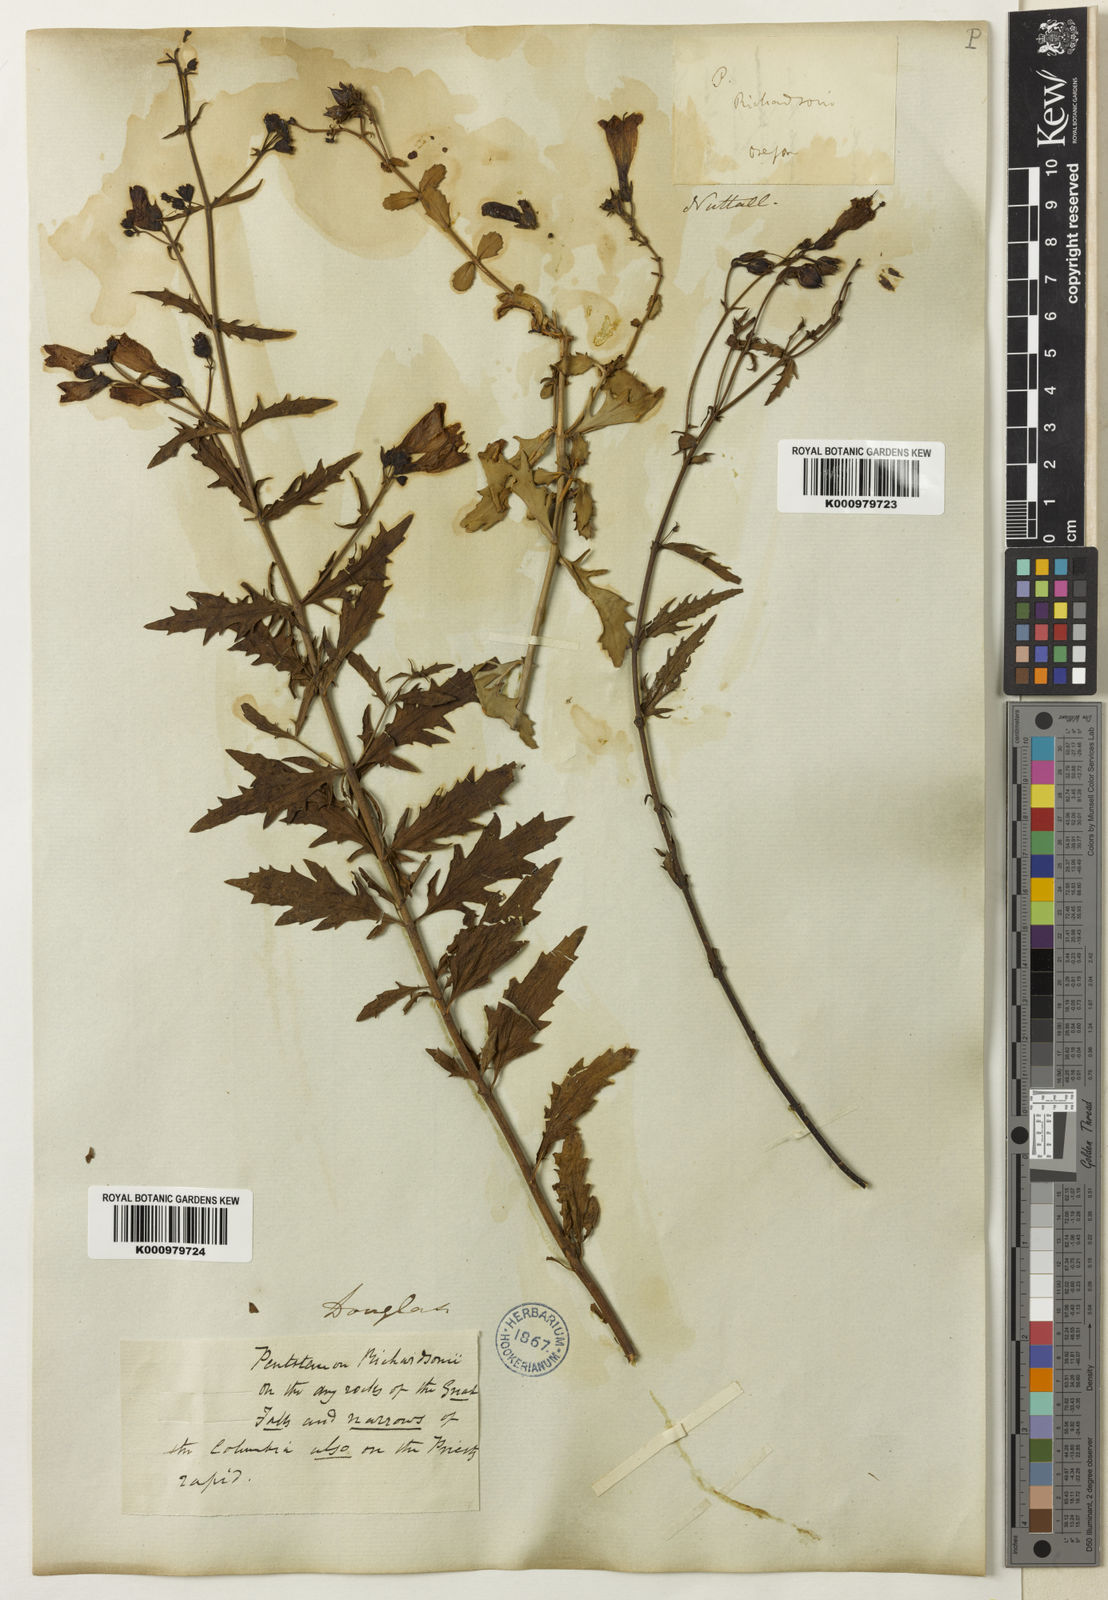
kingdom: Plantae
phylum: Tracheophyta
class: Magnoliopsida
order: Lamiales
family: Plantaginaceae
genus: Penstemon
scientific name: Penstemon richardsonii
